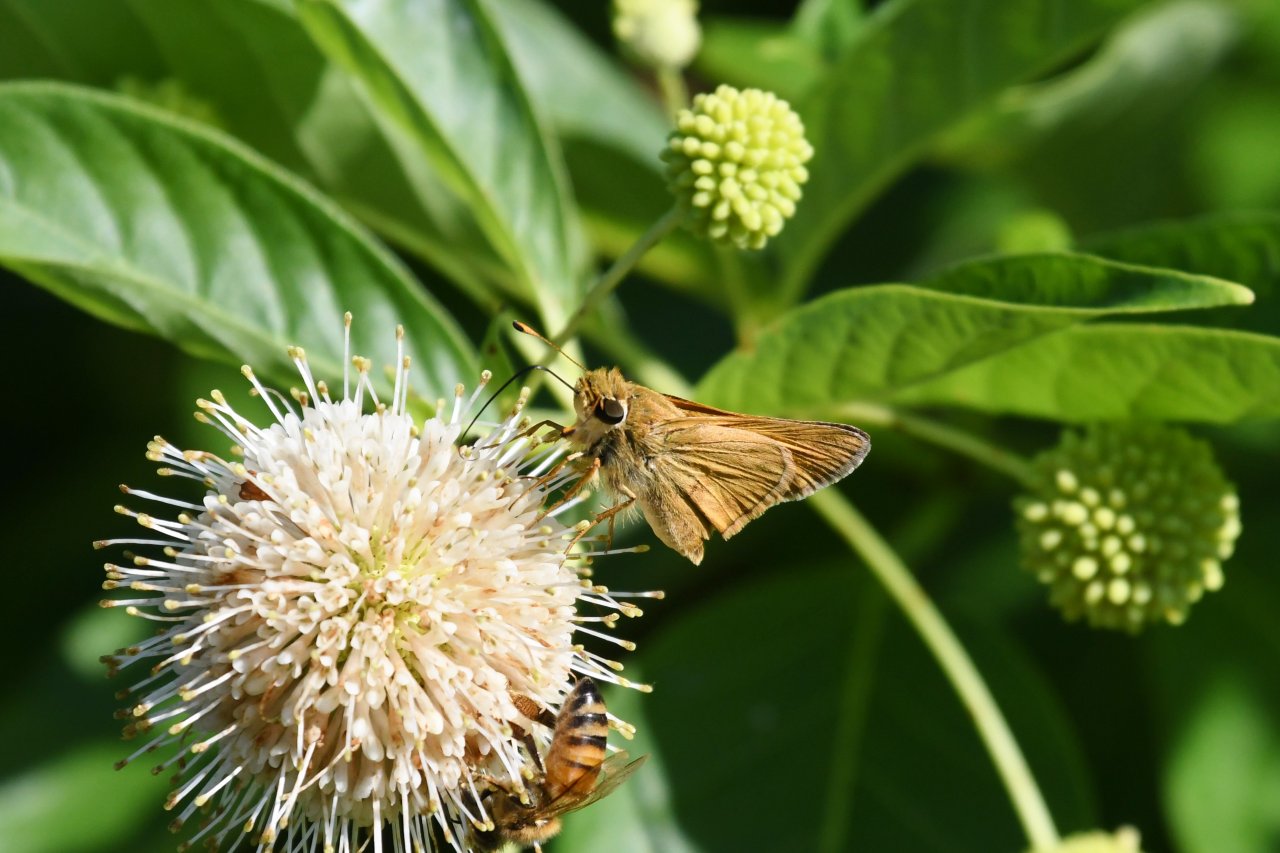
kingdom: Animalia
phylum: Arthropoda
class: Insecta
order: Lepidoptera
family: Hesperiidae
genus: Atalopedes
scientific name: Atalopedes campestris
